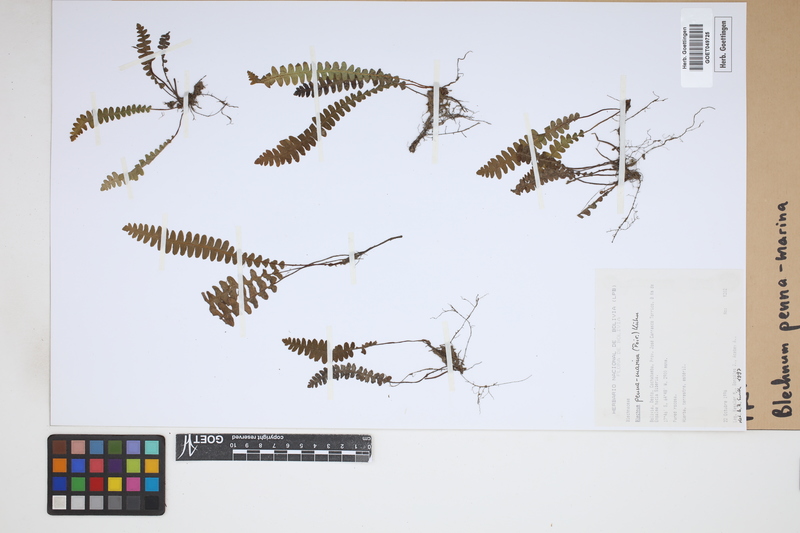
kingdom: Plantae
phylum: Tracheophyta
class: Polypodiopsida
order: Polypodiales
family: Blechnaceae
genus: Austroblechnum
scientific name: Austroblechnum penna-marina
